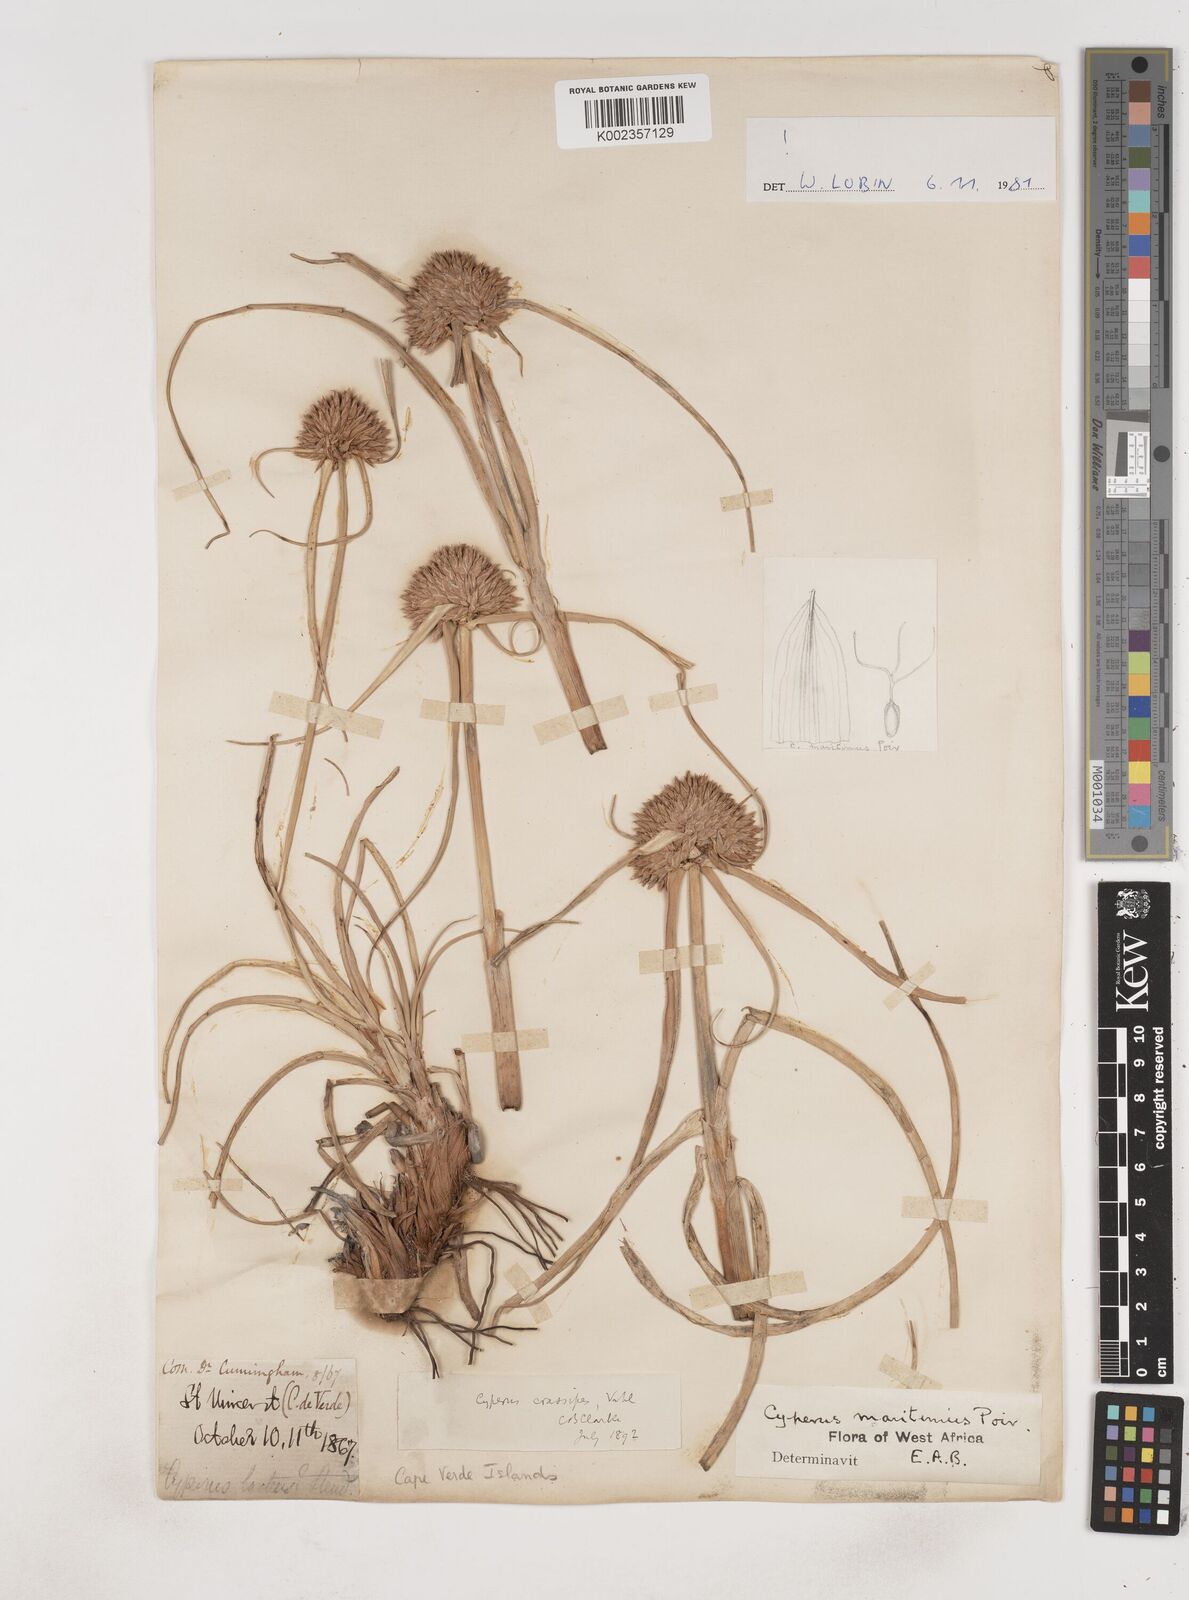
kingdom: Plantae
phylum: Tracheophyta
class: Liliopsida
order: Poales
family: Cyperaceae
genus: Cyperus
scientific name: Cyperus crassipes
